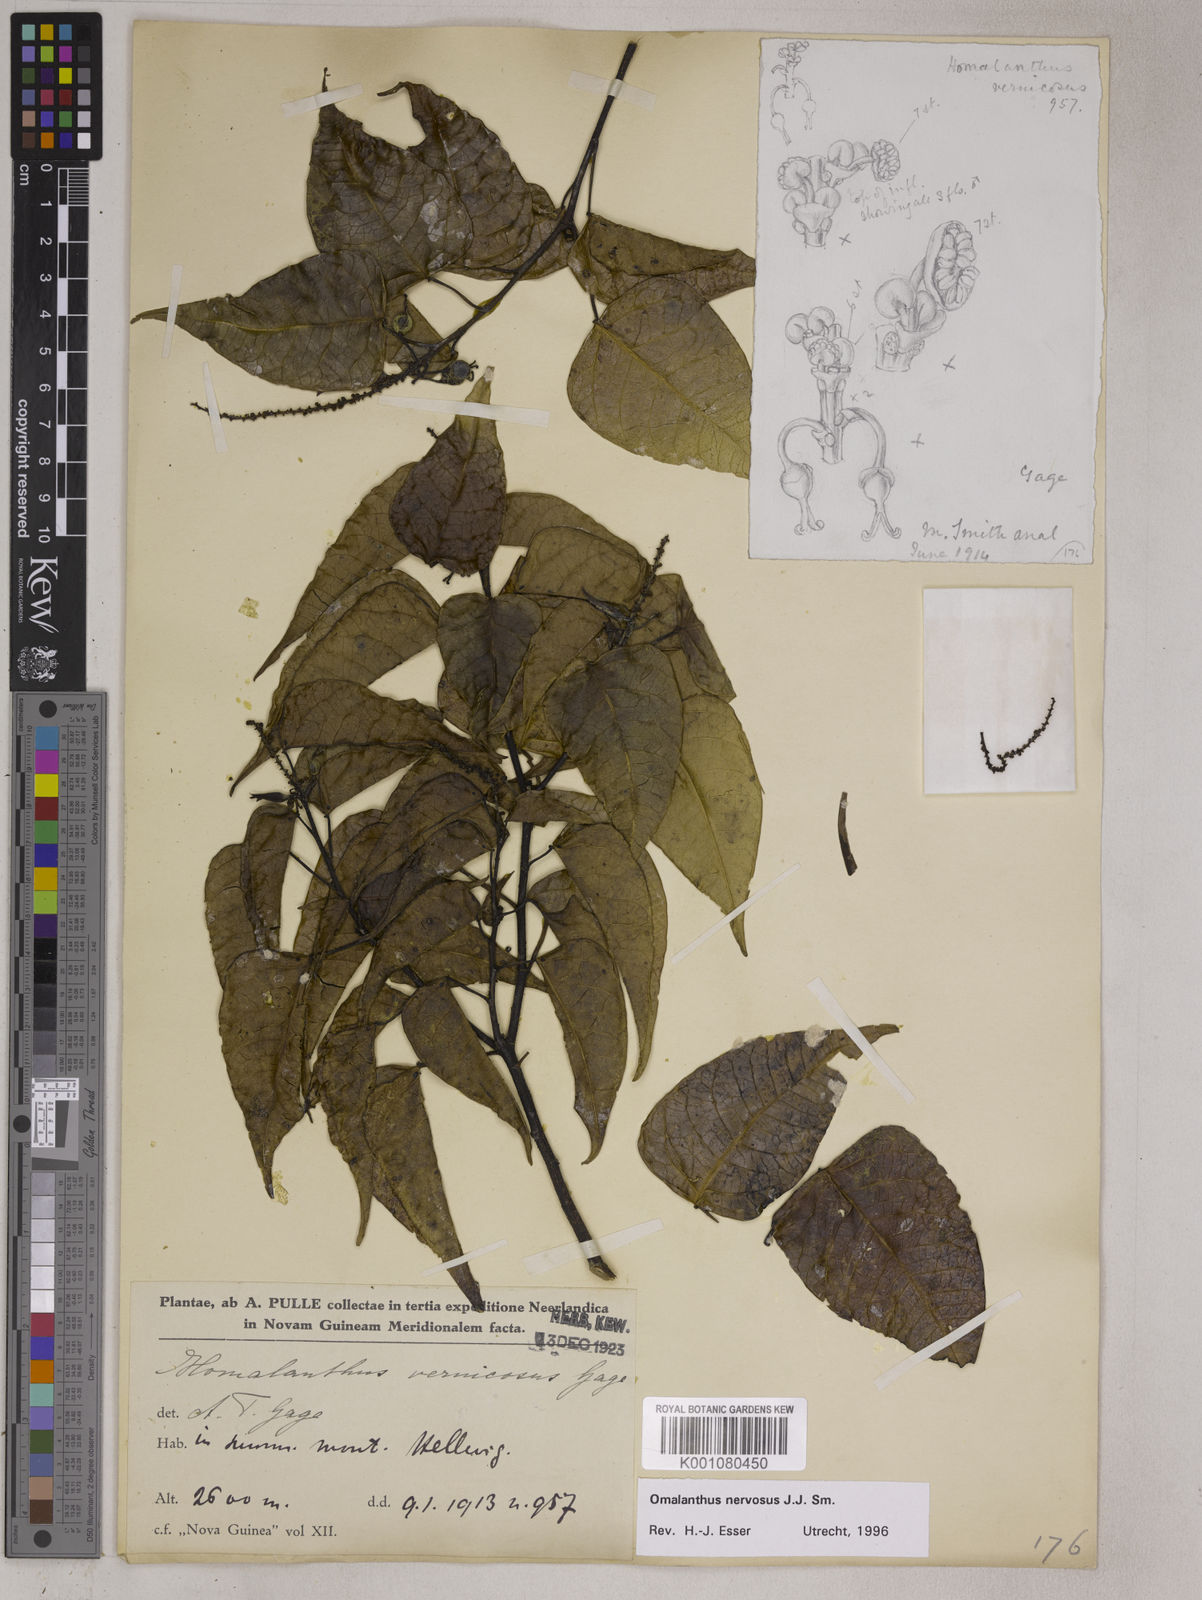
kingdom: Plantae
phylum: Tracheophyta
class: Magnoliopsida
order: Malpighiales
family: Euphorbiaceae
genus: Homalanthus
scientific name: Homalanthus nervosus
